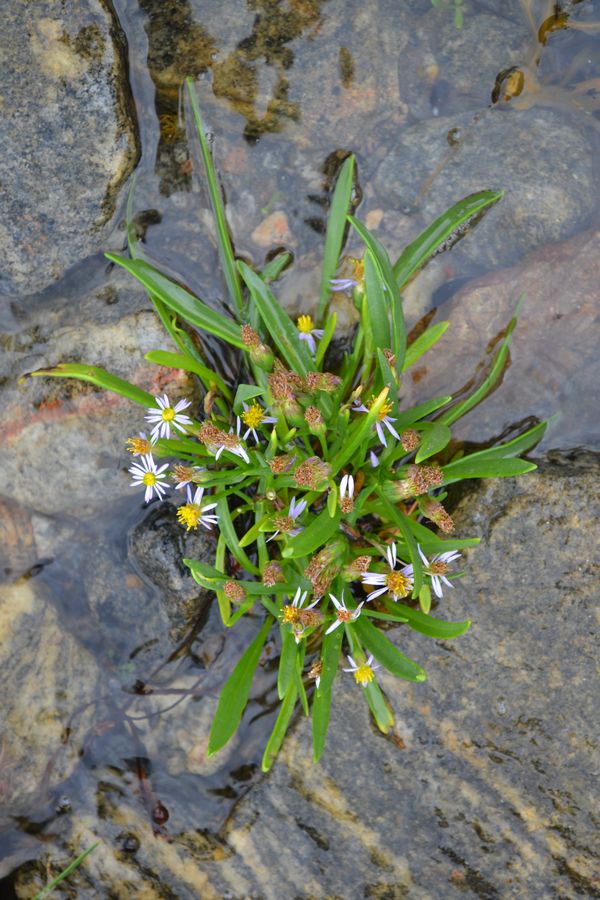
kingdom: Plantae
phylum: Tracheophyta
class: Magnoliopsida
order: Asterales
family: Asteraceae
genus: Tripolium
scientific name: Tripolium pannonicum
